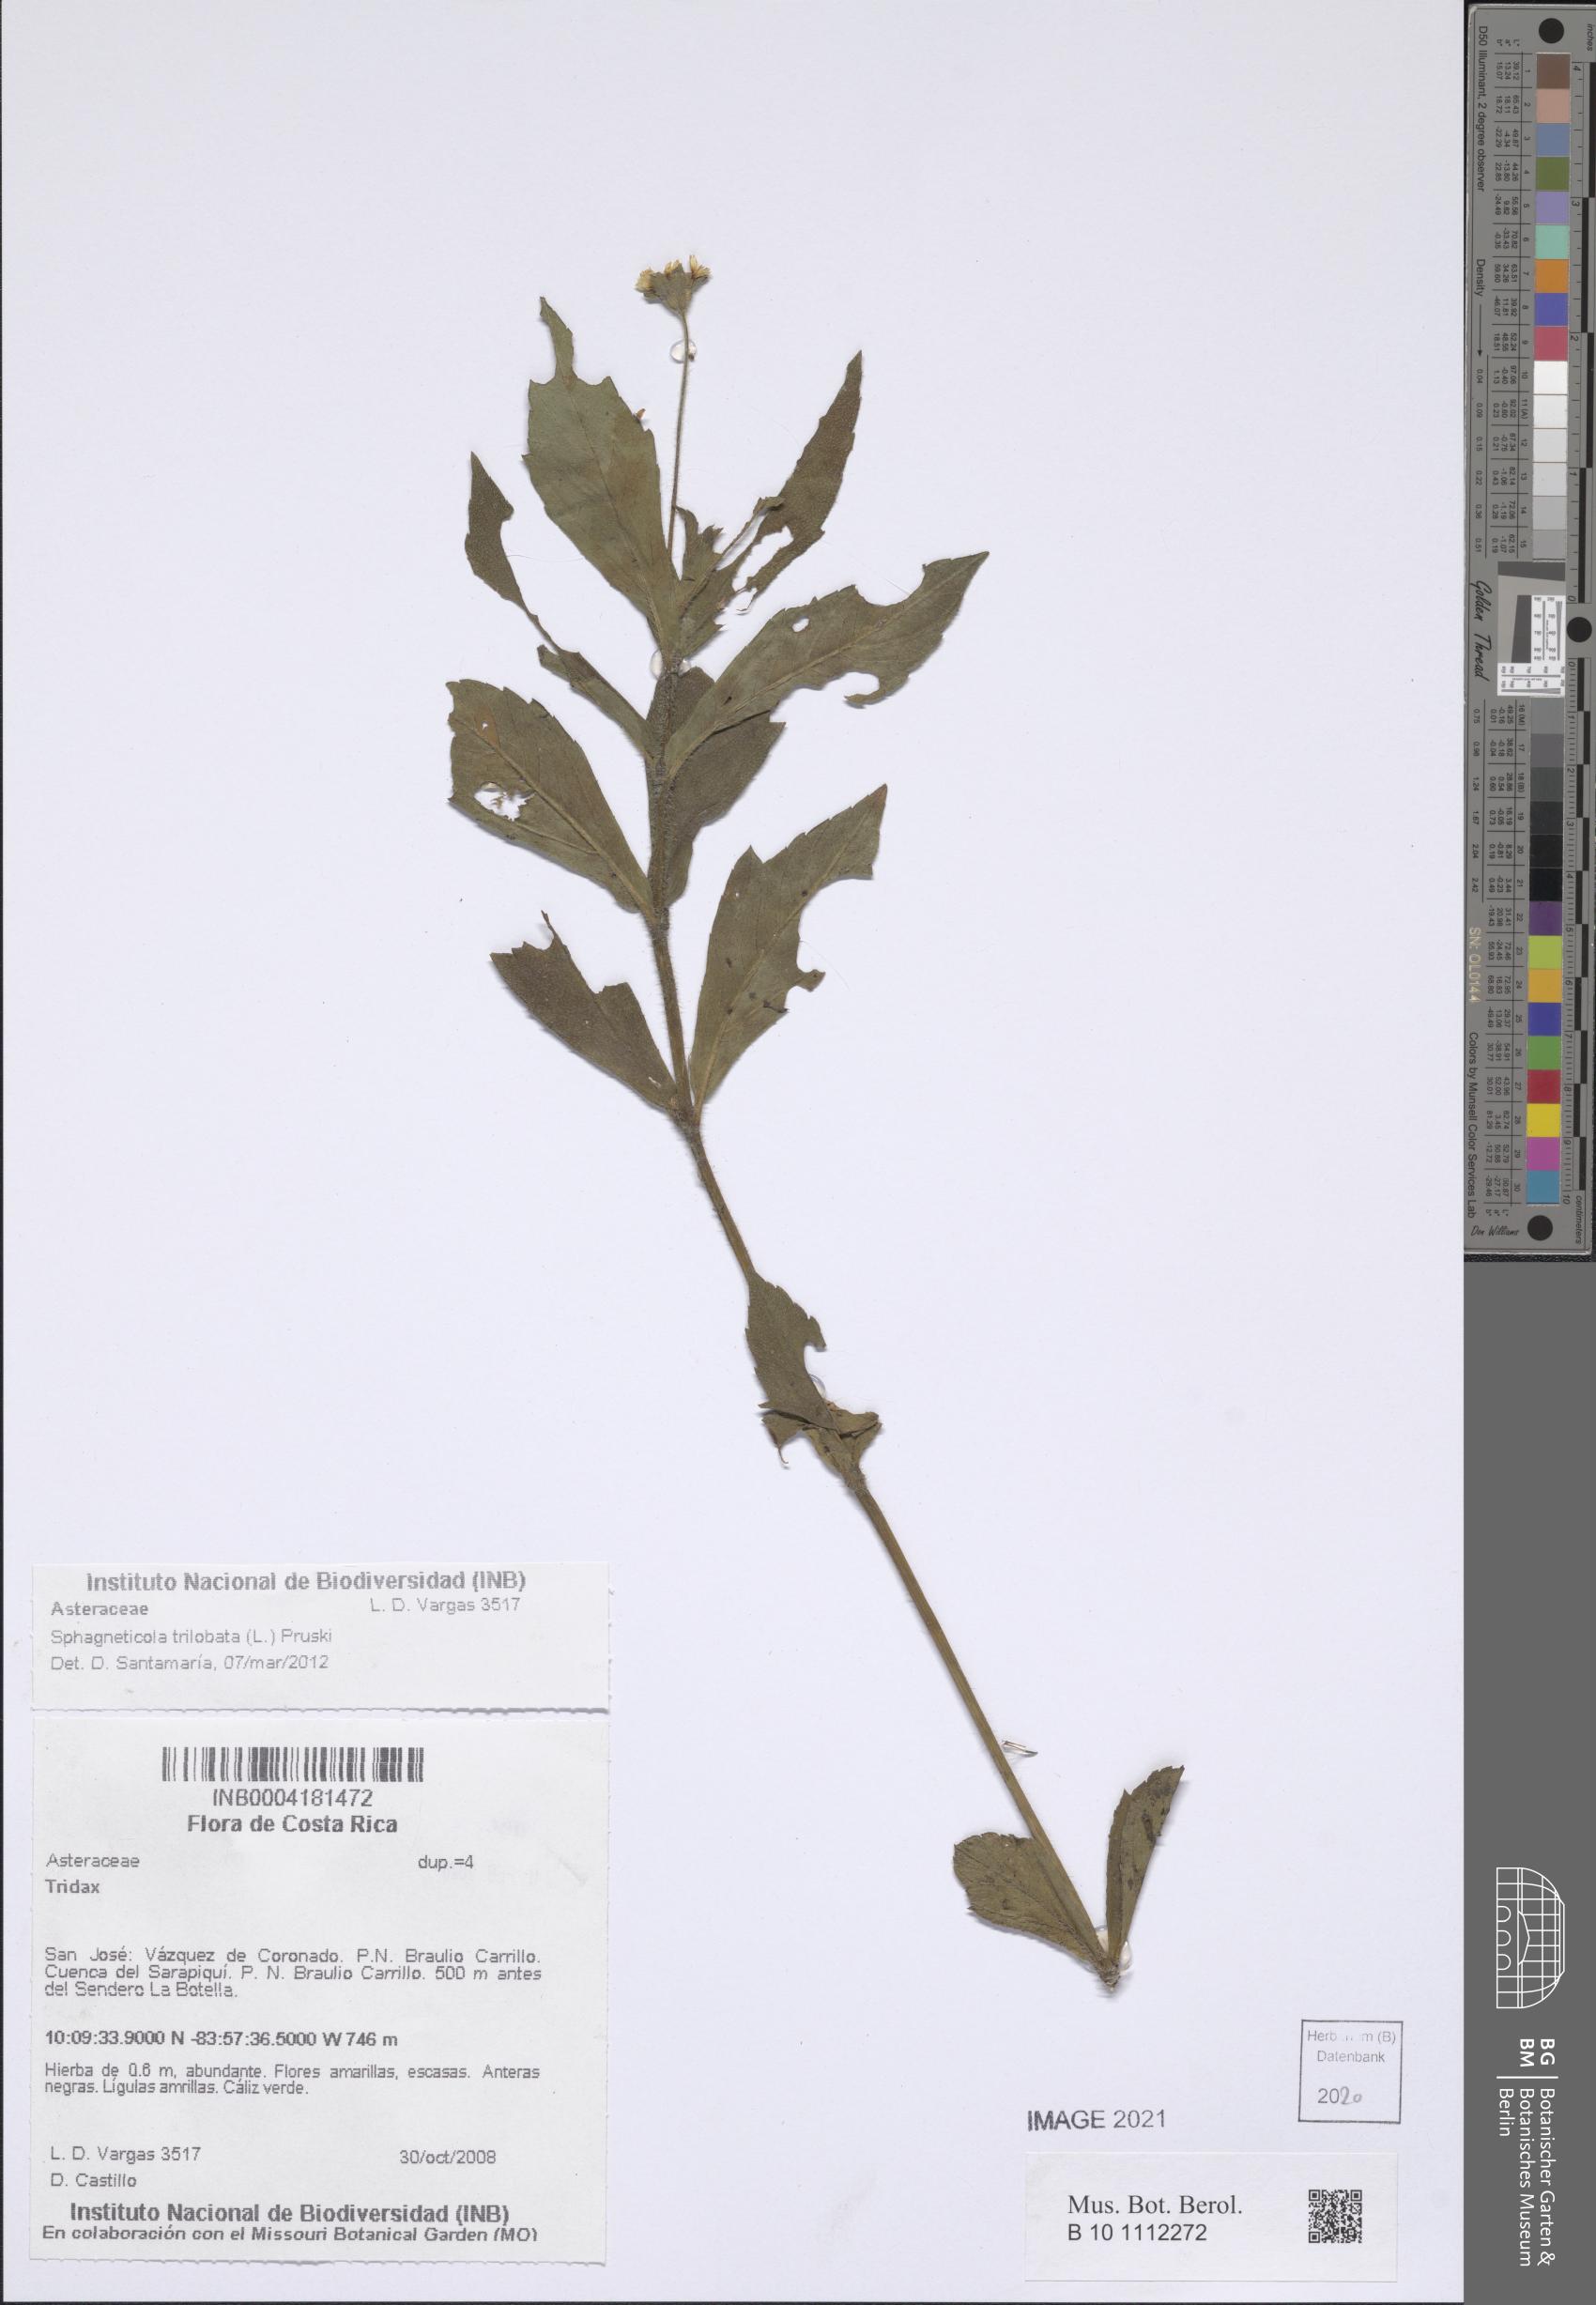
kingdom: Plantae
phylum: Tracheophyta
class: Magnoliopsida
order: Asterales
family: Asteraceae
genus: Sphagneticola
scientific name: Sphagneticola trilobata
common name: Bay biscayne creeping-oxeye
